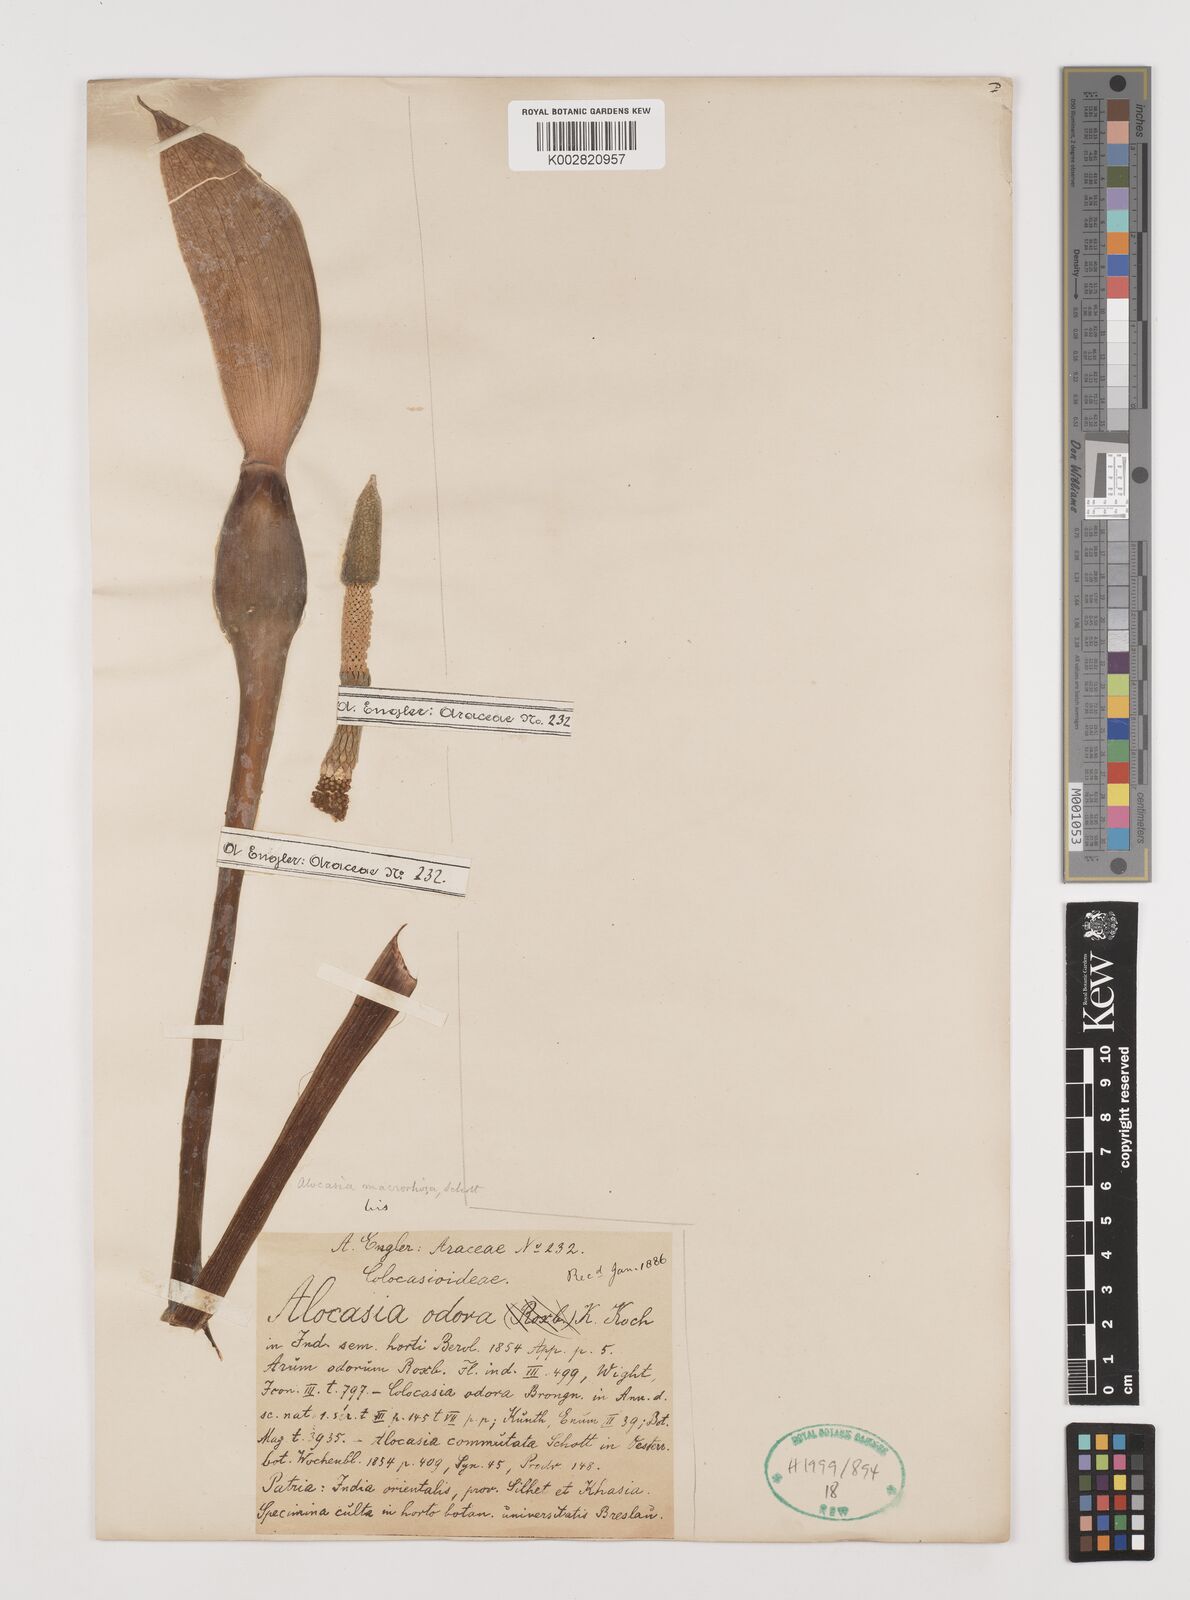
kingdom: Plantae
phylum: Tracheophyta
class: Liliopsida
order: Alismatales
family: Araceae
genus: Alocasia
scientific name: Alocasia odora
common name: Asian taro
